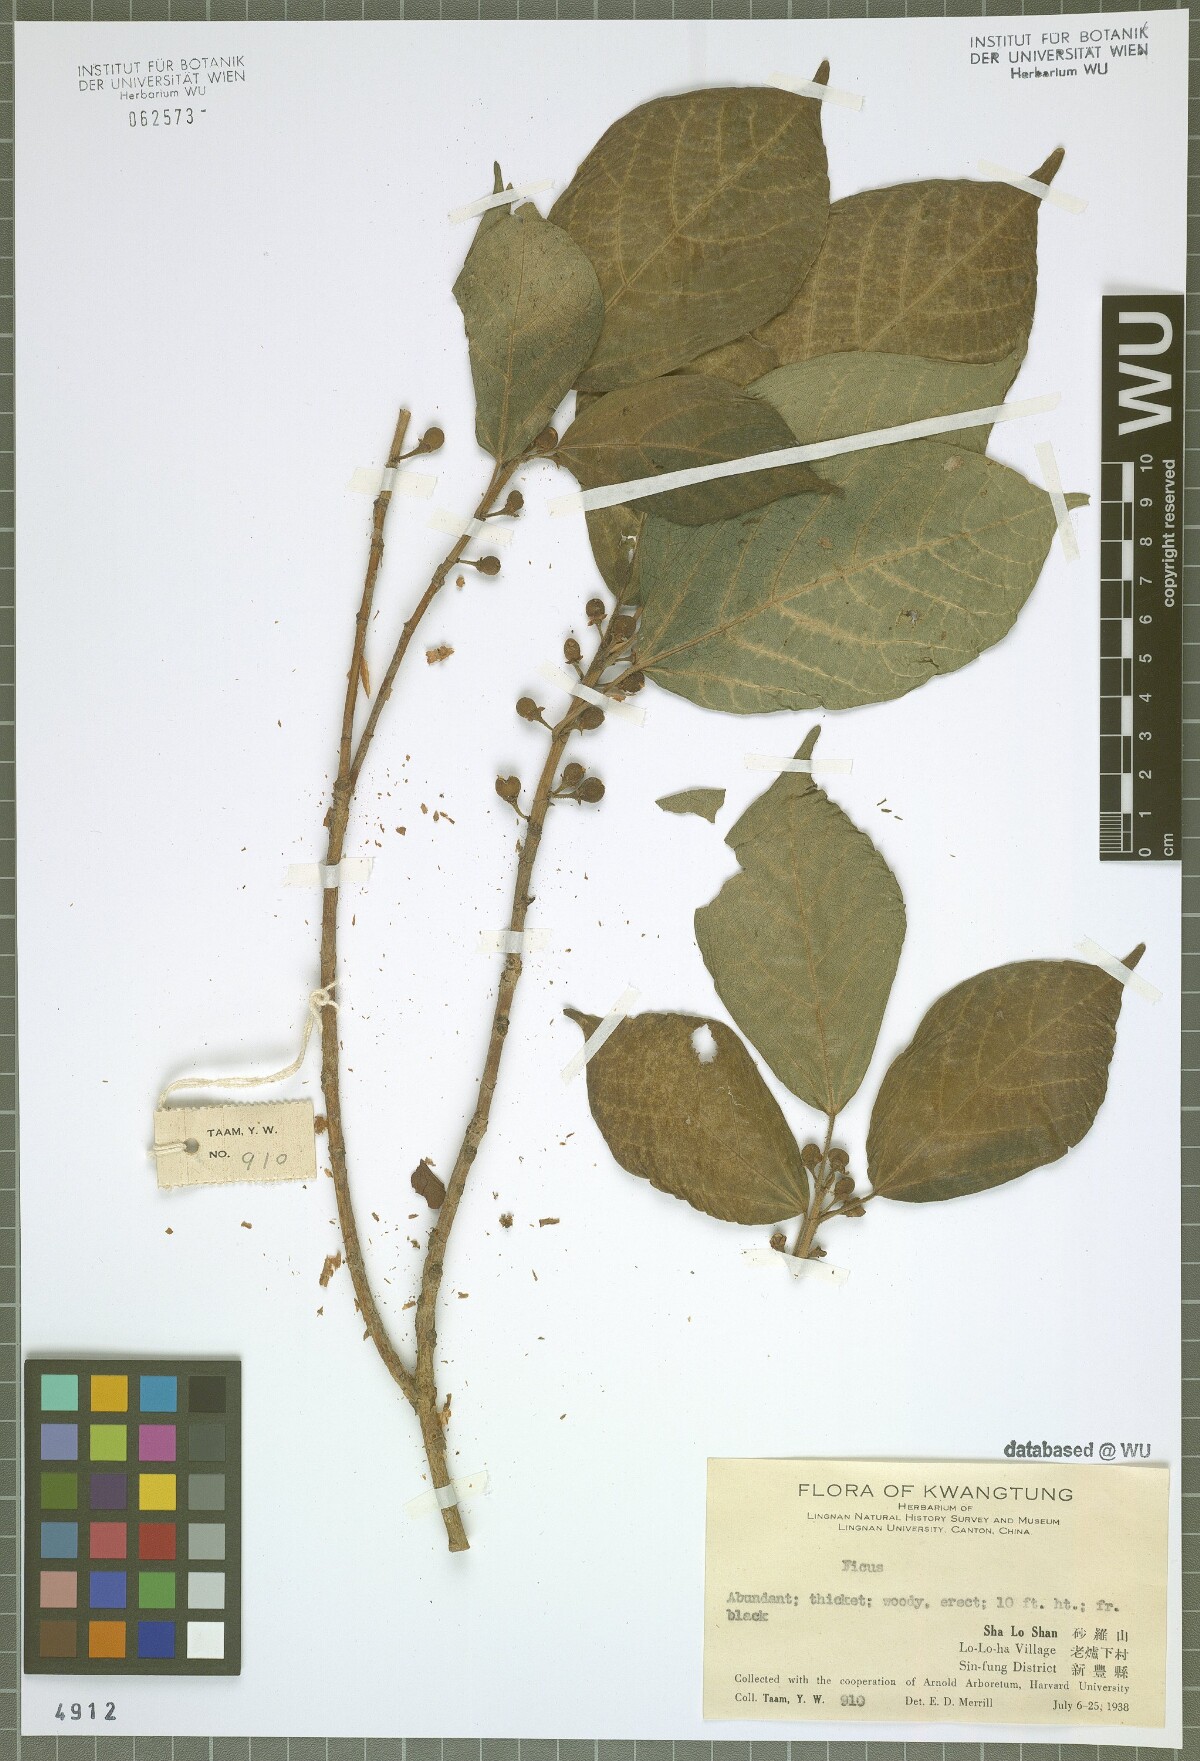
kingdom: Plantae
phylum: Tracheophyta
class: Magnoliopsida
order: Rosales
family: Moraceae
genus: Ficus
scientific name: Ficus
